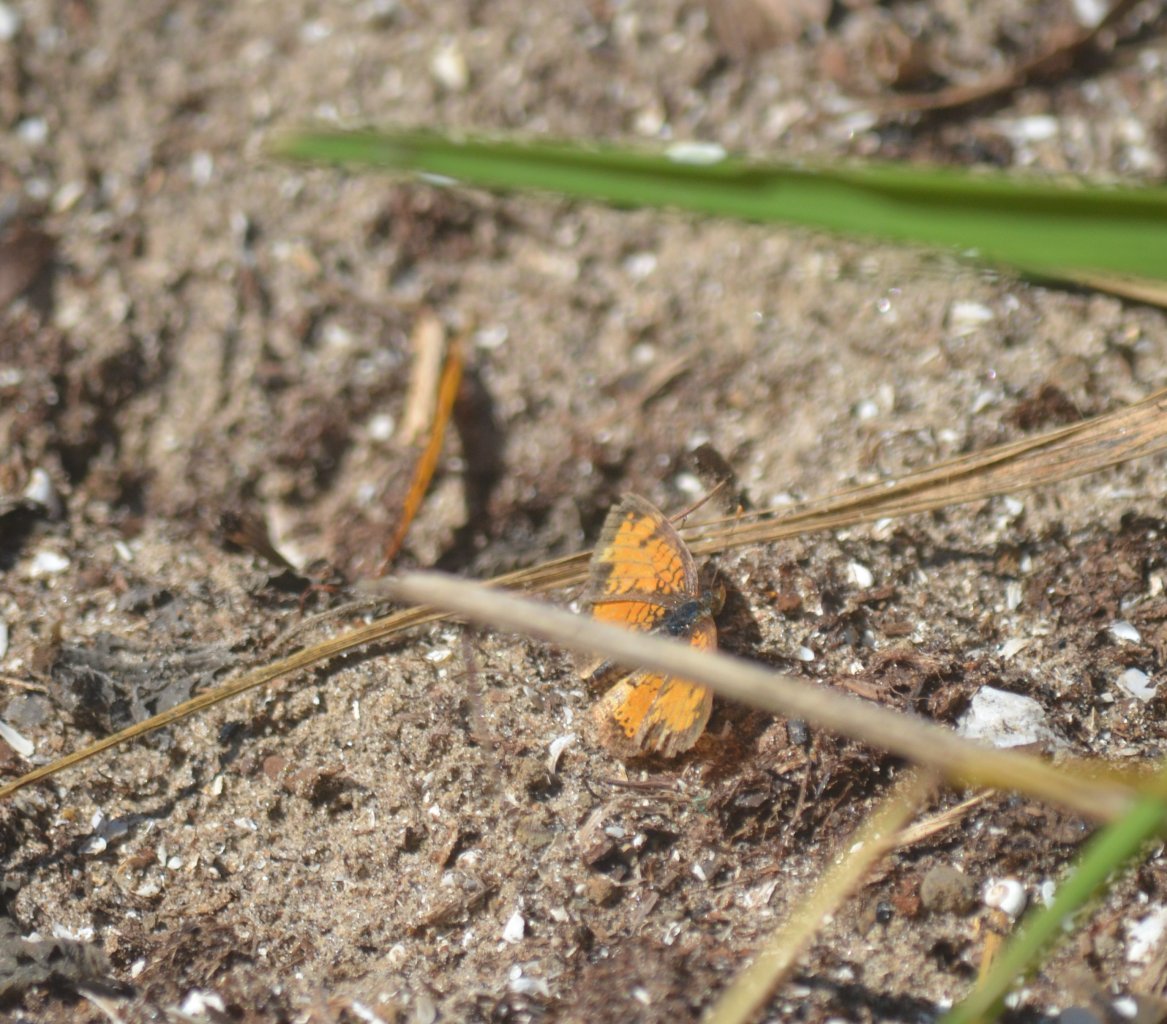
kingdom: Animalia
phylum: Arthropoda
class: Insecta
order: Lepidoptera
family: Nymphalidae
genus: Phyciodes
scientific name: Phyciodes tharos
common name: Northern Crescent
